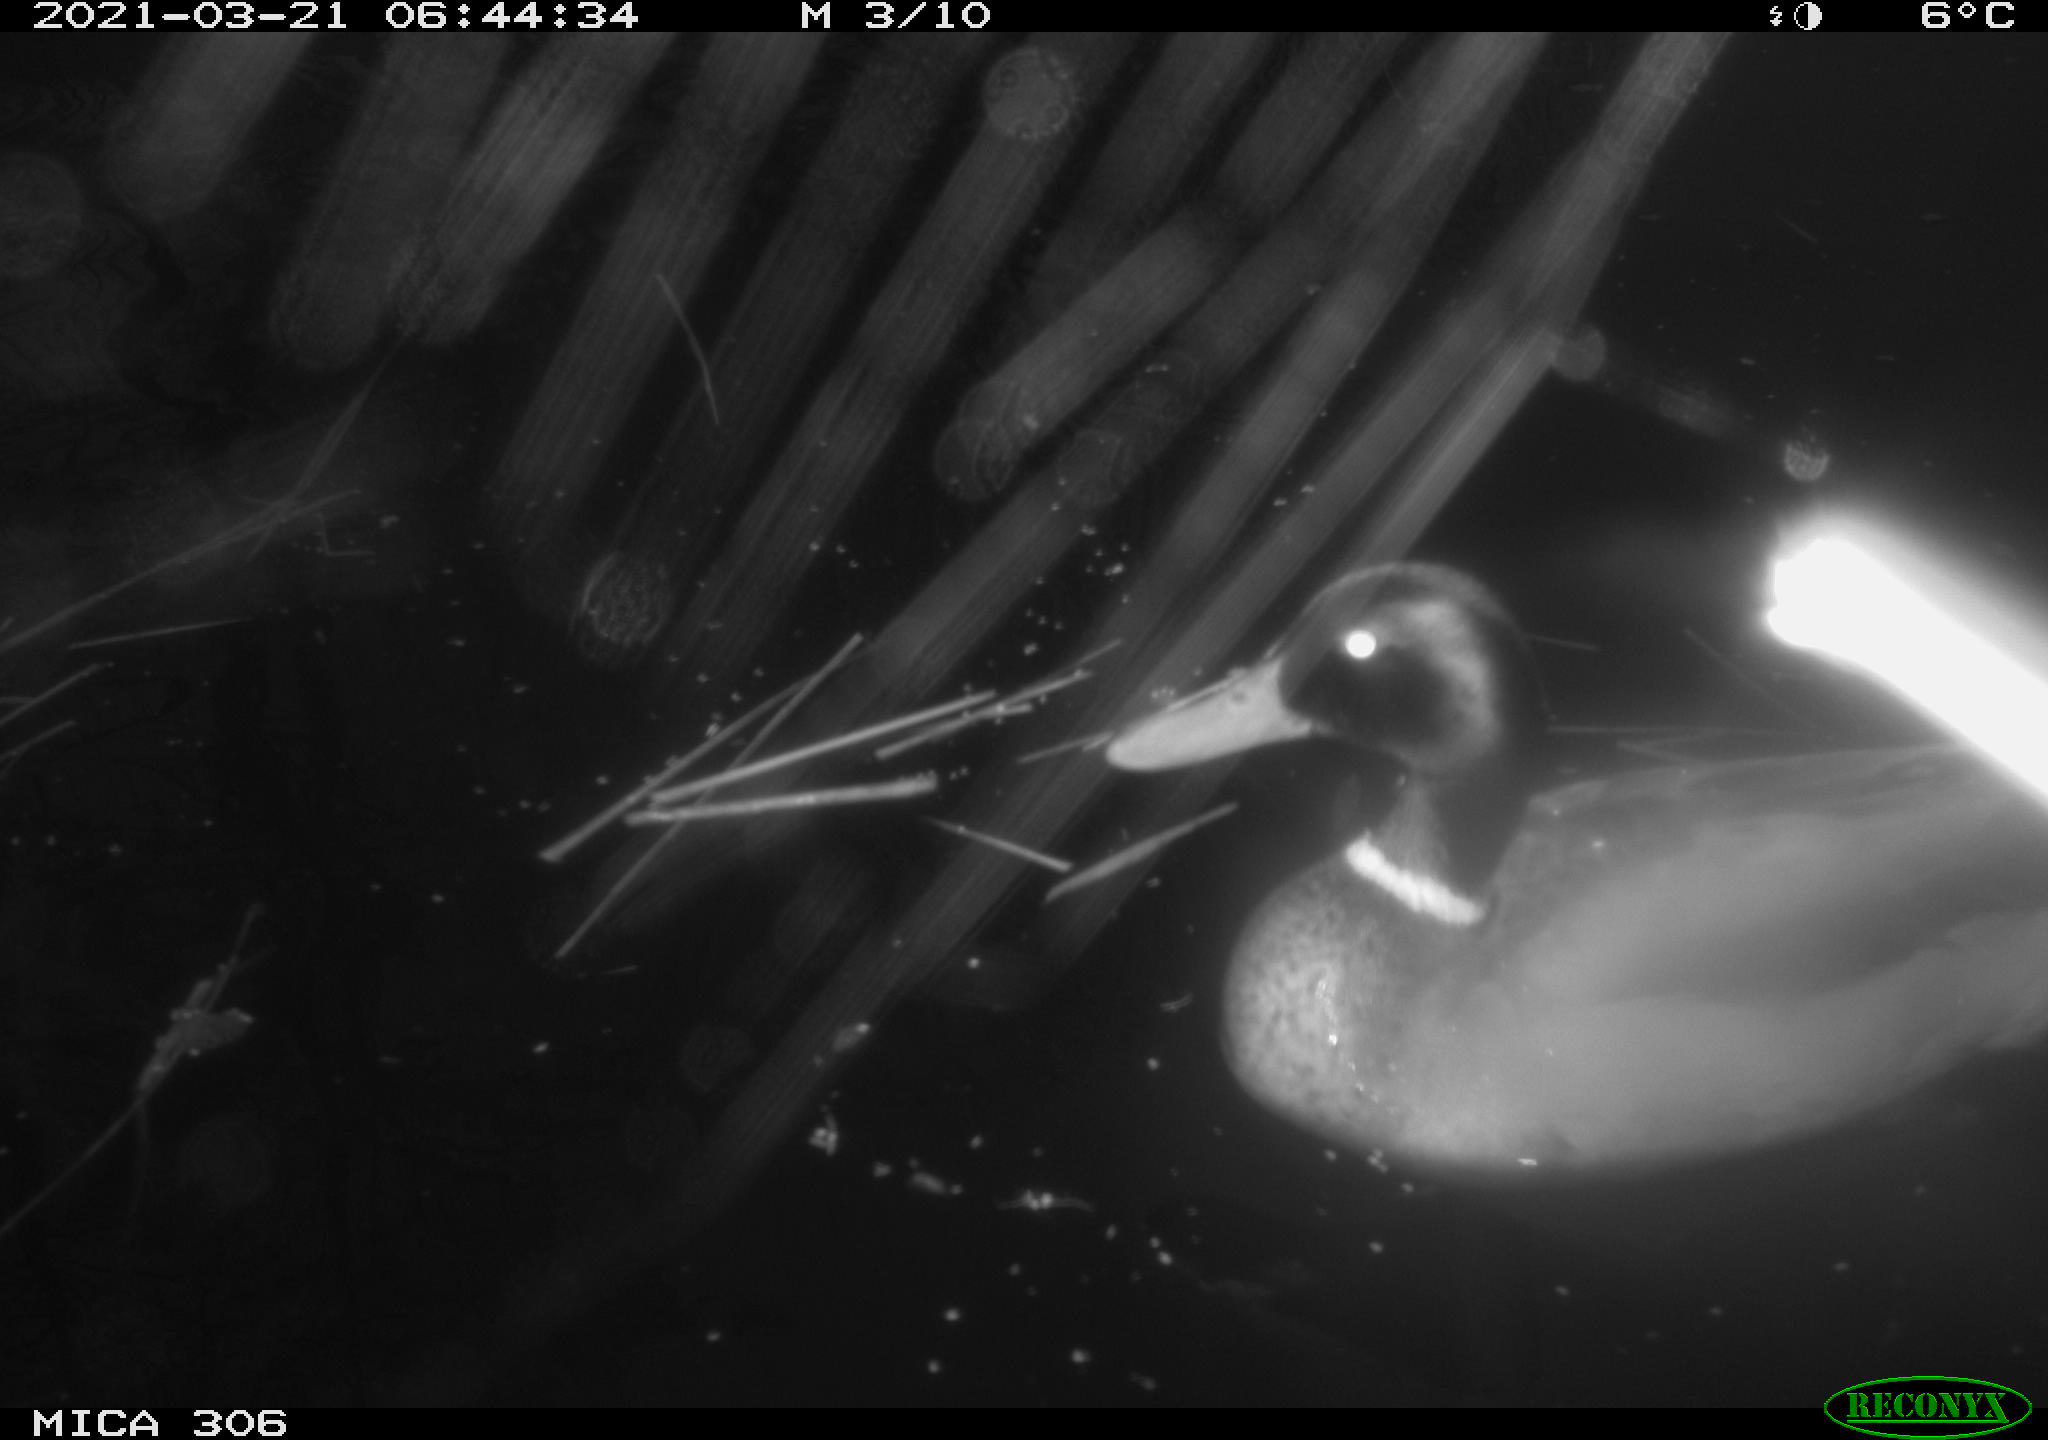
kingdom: Animalia
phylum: Chordata
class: Aves
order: Anseriformes
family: Anatidae
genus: Anas
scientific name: Anas platyrhynchos
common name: Mallard
